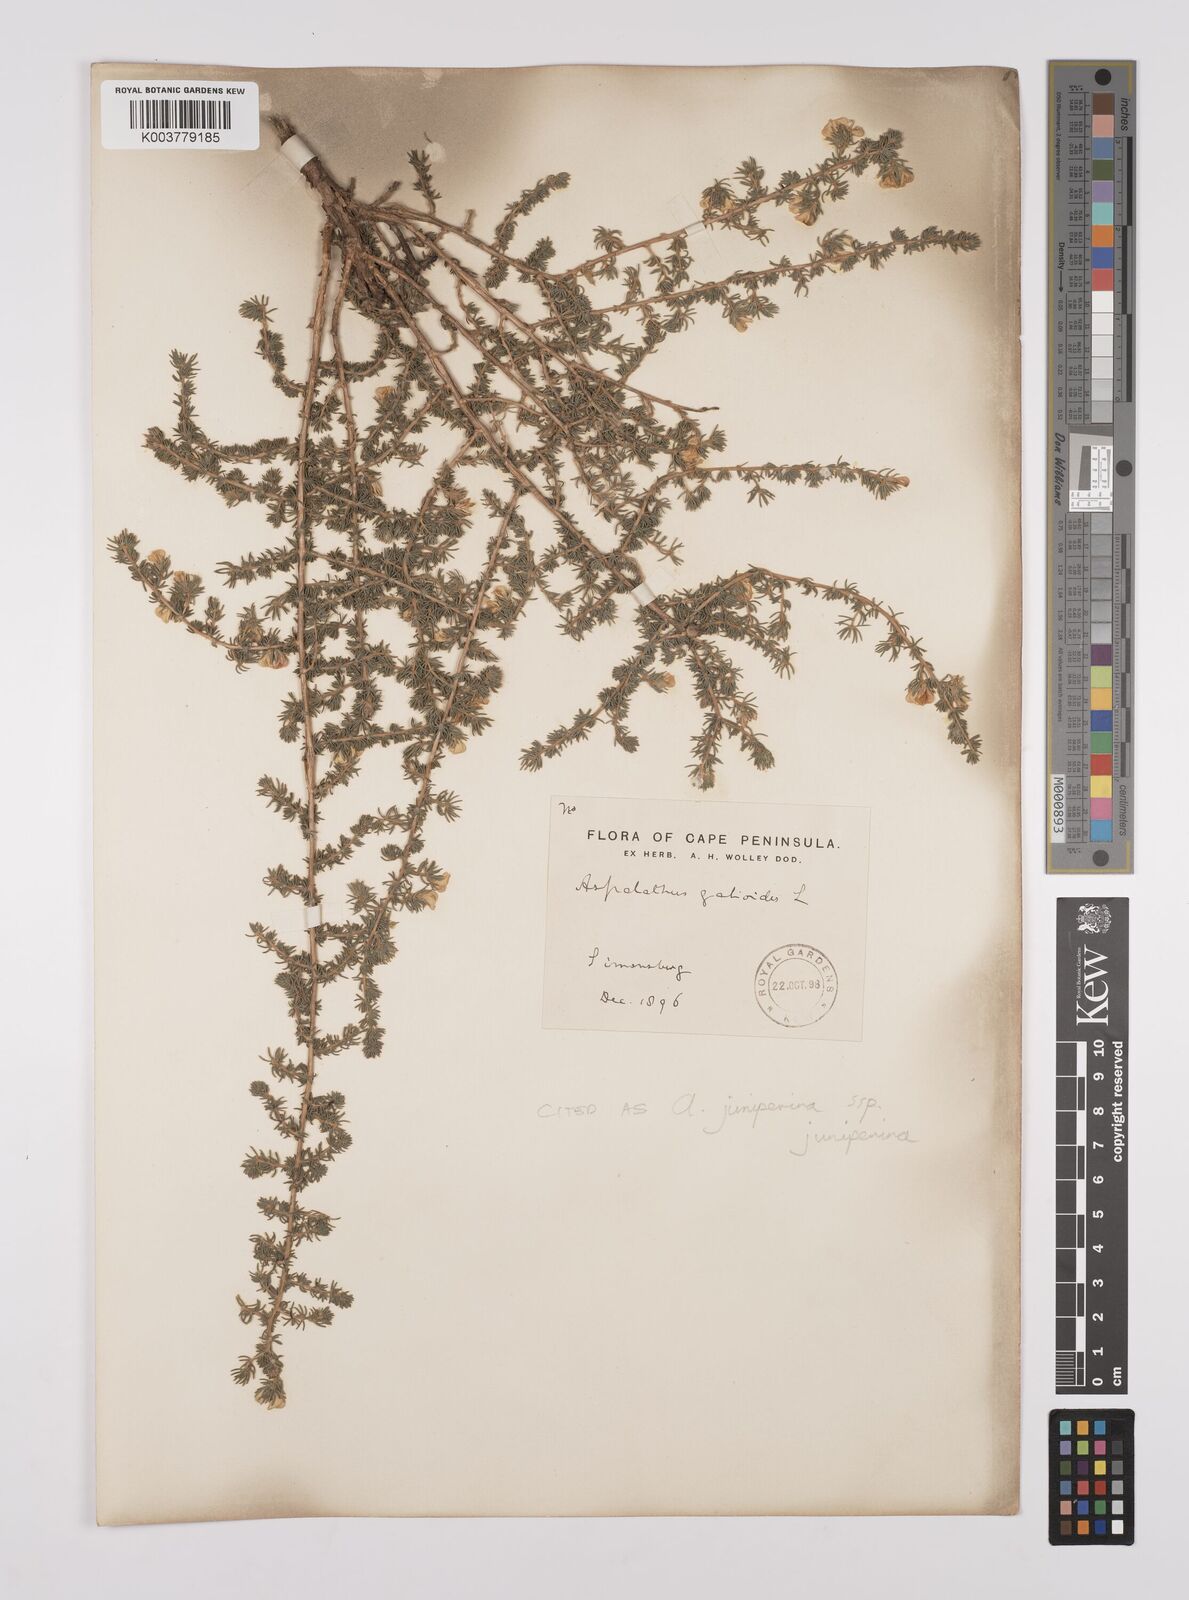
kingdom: Plantae
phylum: Tracheophyta
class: Magnoliopsida
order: Fabales
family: Fabaceae
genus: Aspalathus
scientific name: Aspalathus juniperina
